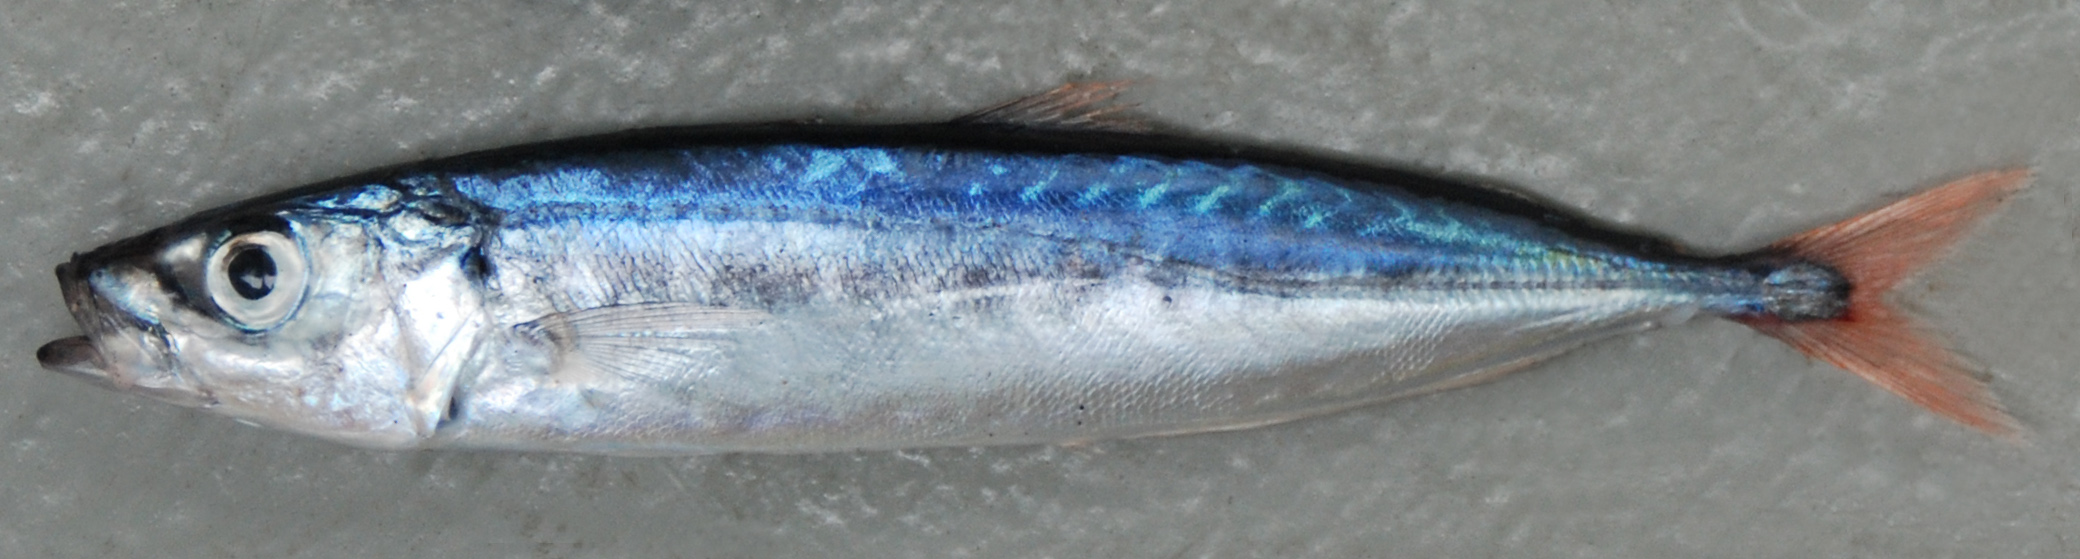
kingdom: Animalia
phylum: Chordata
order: Perciformes
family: Carangidae
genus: Decapterus
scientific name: Decapterus tabl
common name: Roughear scad
